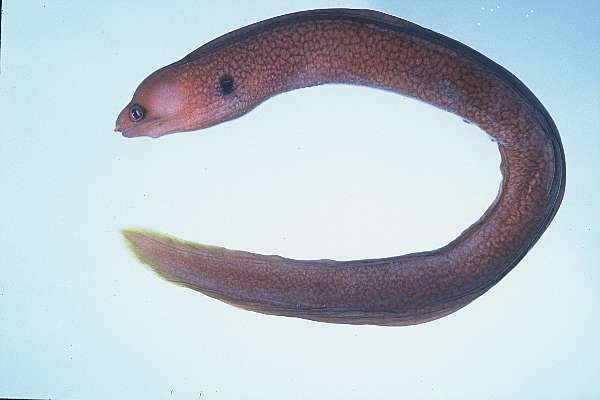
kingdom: Animalia
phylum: Chordata
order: Anguilliformes
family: Muraenidae
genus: Gymnothorax
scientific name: Gymnothorax melatremus
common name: Dwarf moray
